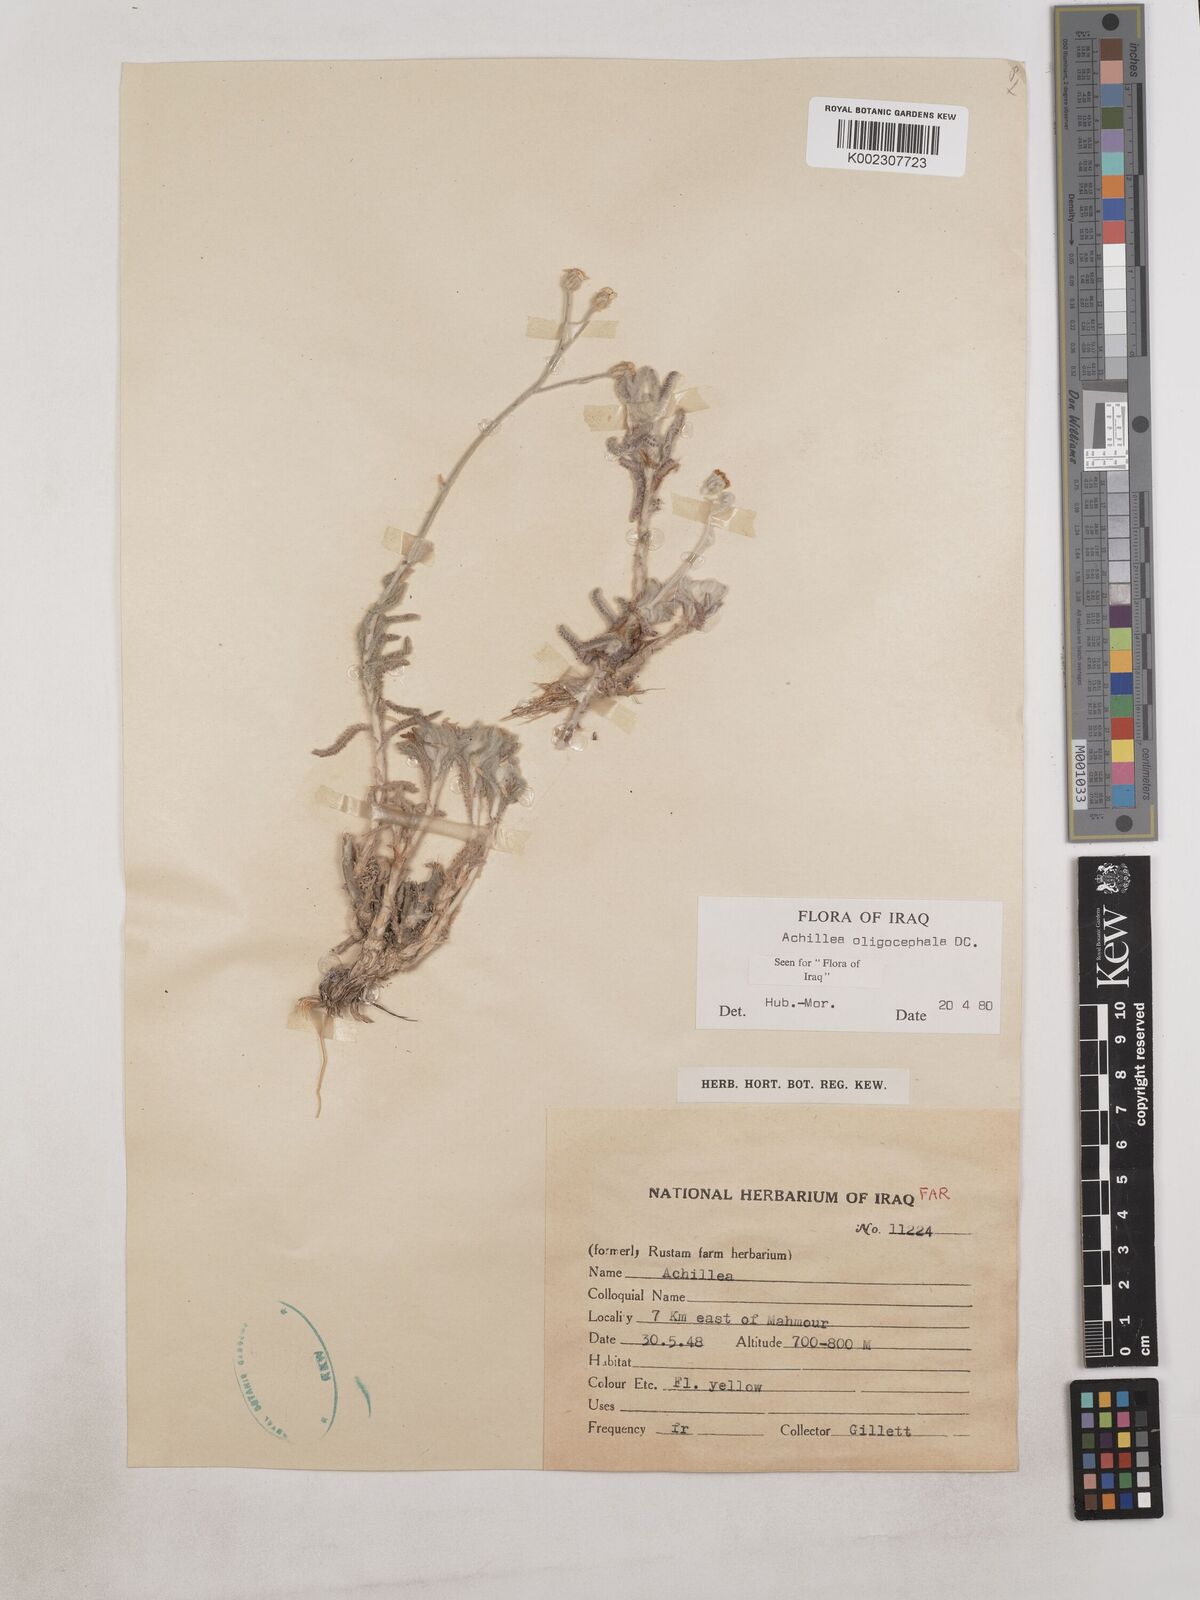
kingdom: Plantae
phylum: Tracheophyta
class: Magnoliopsida
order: Asterales
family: Asteraceae
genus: Achillea
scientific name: Achillea oligocephala
